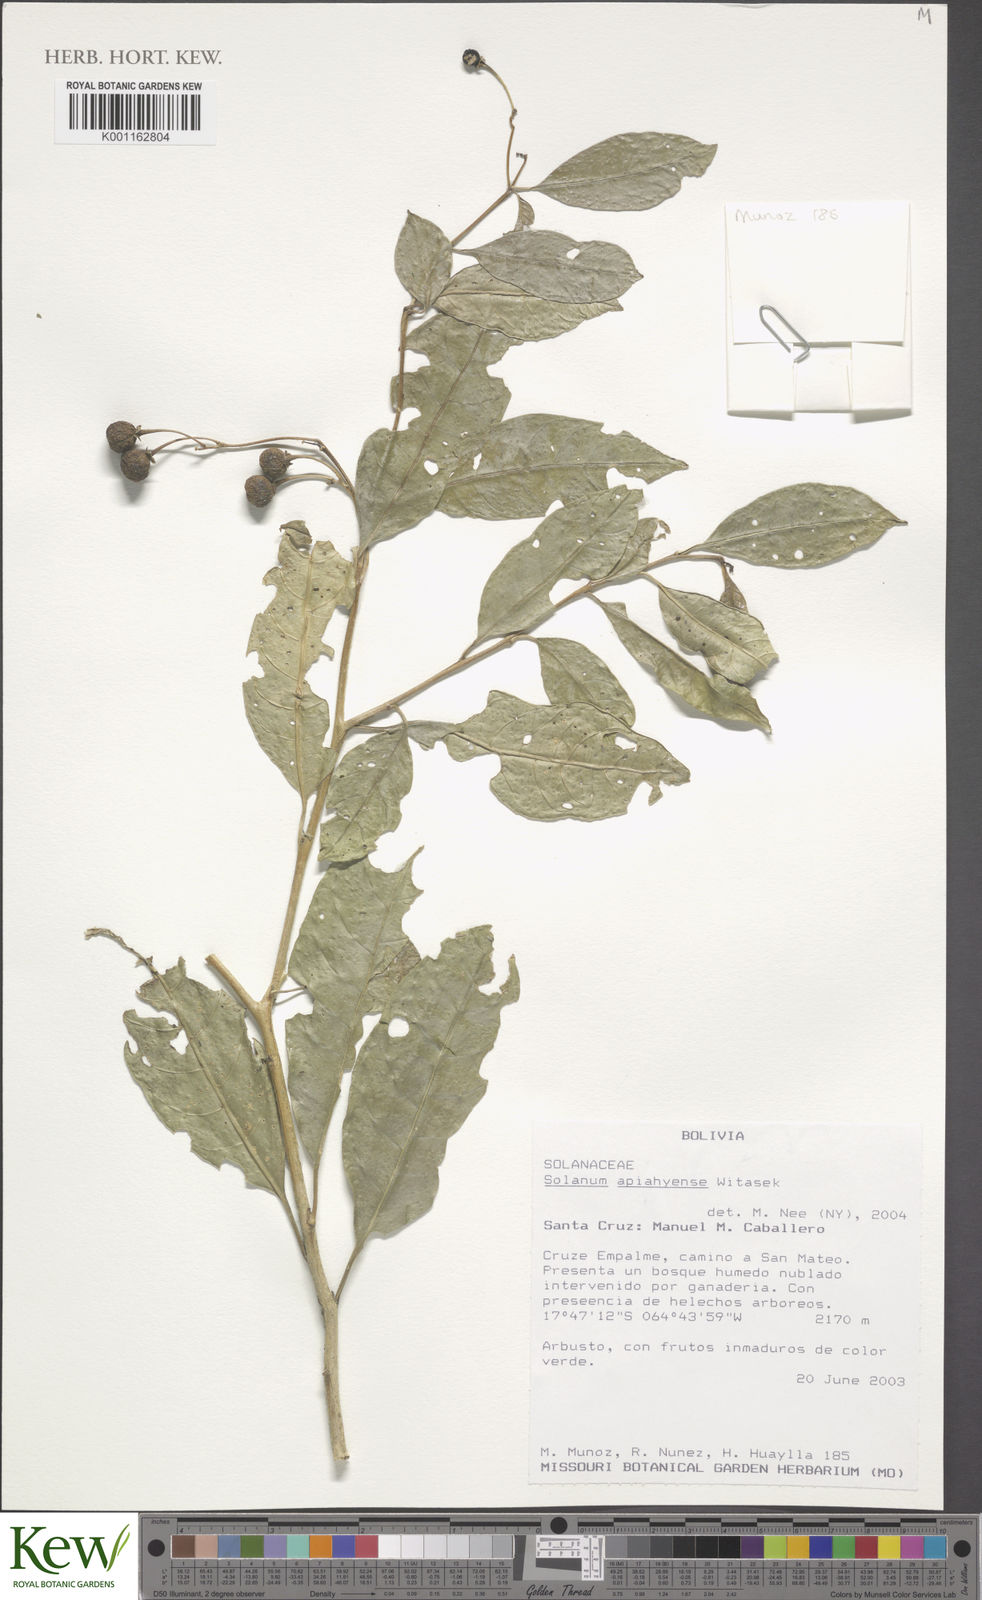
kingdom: Plantae
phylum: Tracheophyta
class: Magnoliopsida
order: Solanales
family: Solanaceae
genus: Solanum
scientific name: Solanum apiahyense
